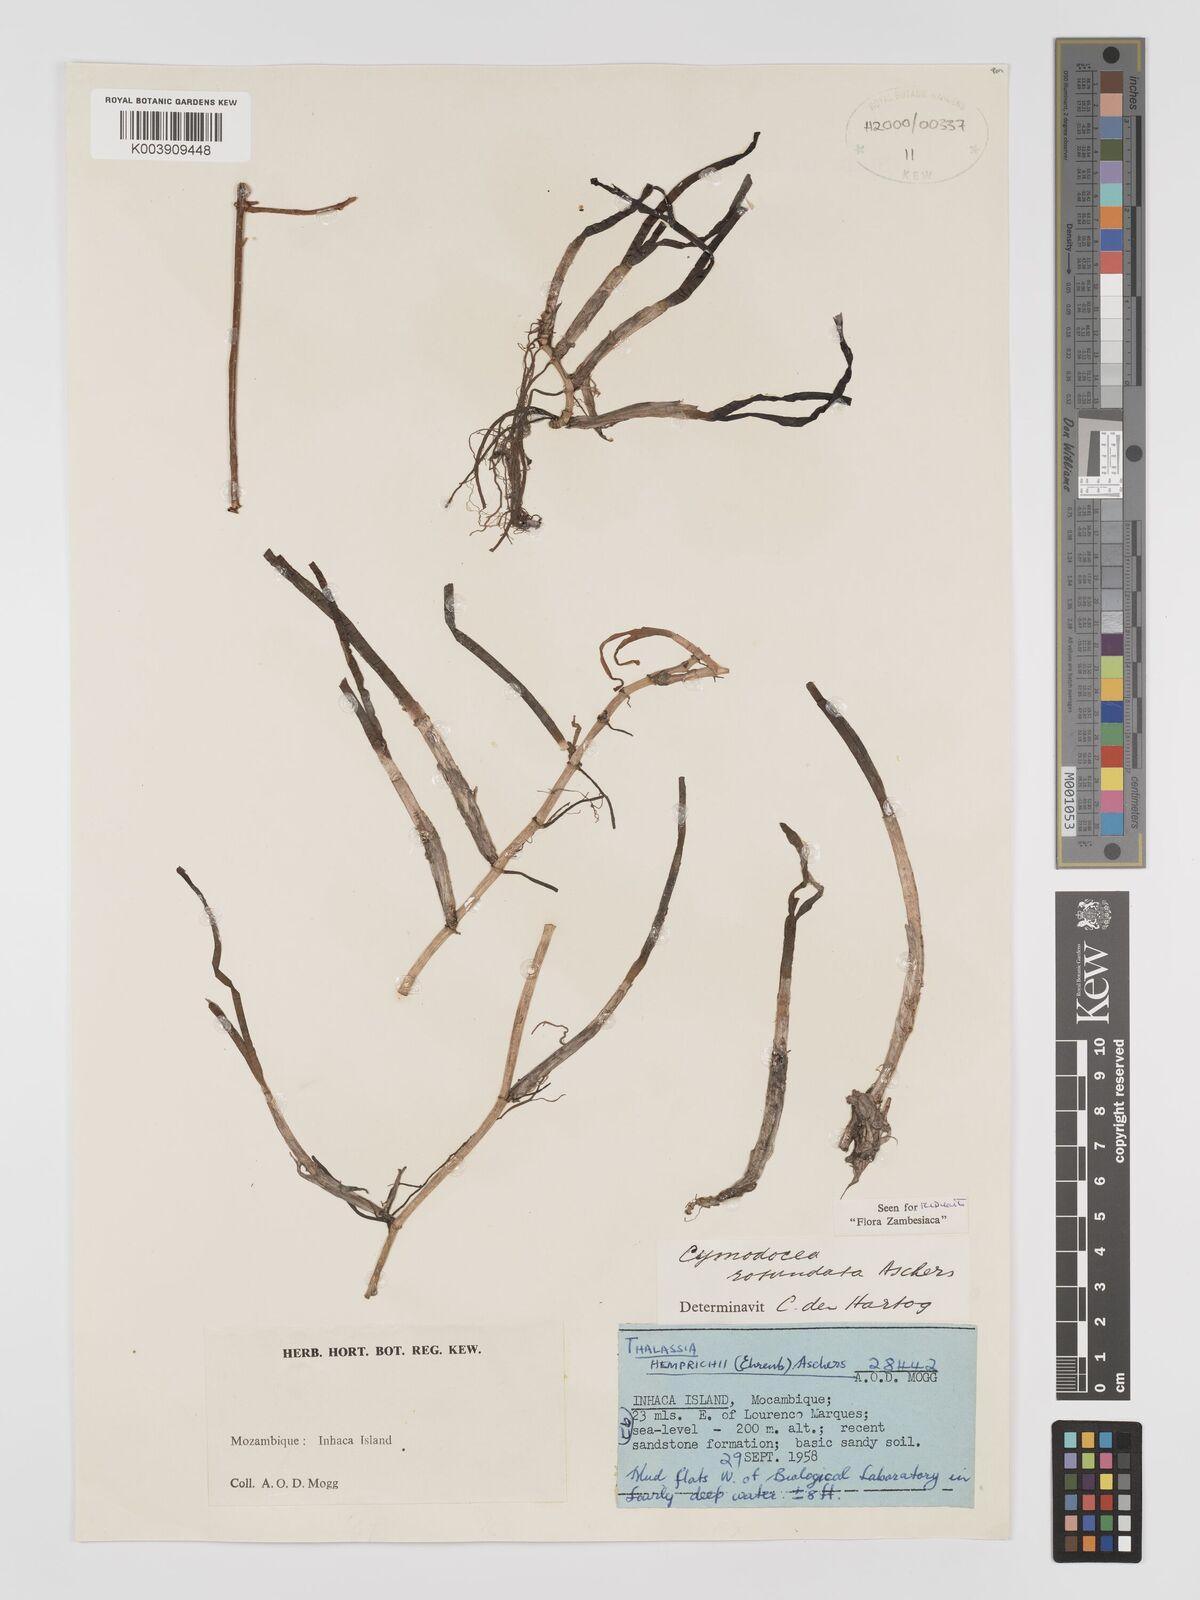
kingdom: Plantae
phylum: Tracheophyta
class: Liliopsida
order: Alismatales
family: Cymodoceaceae
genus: Cymodocea
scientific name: Cymodocea rotundata
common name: Species code: cr
